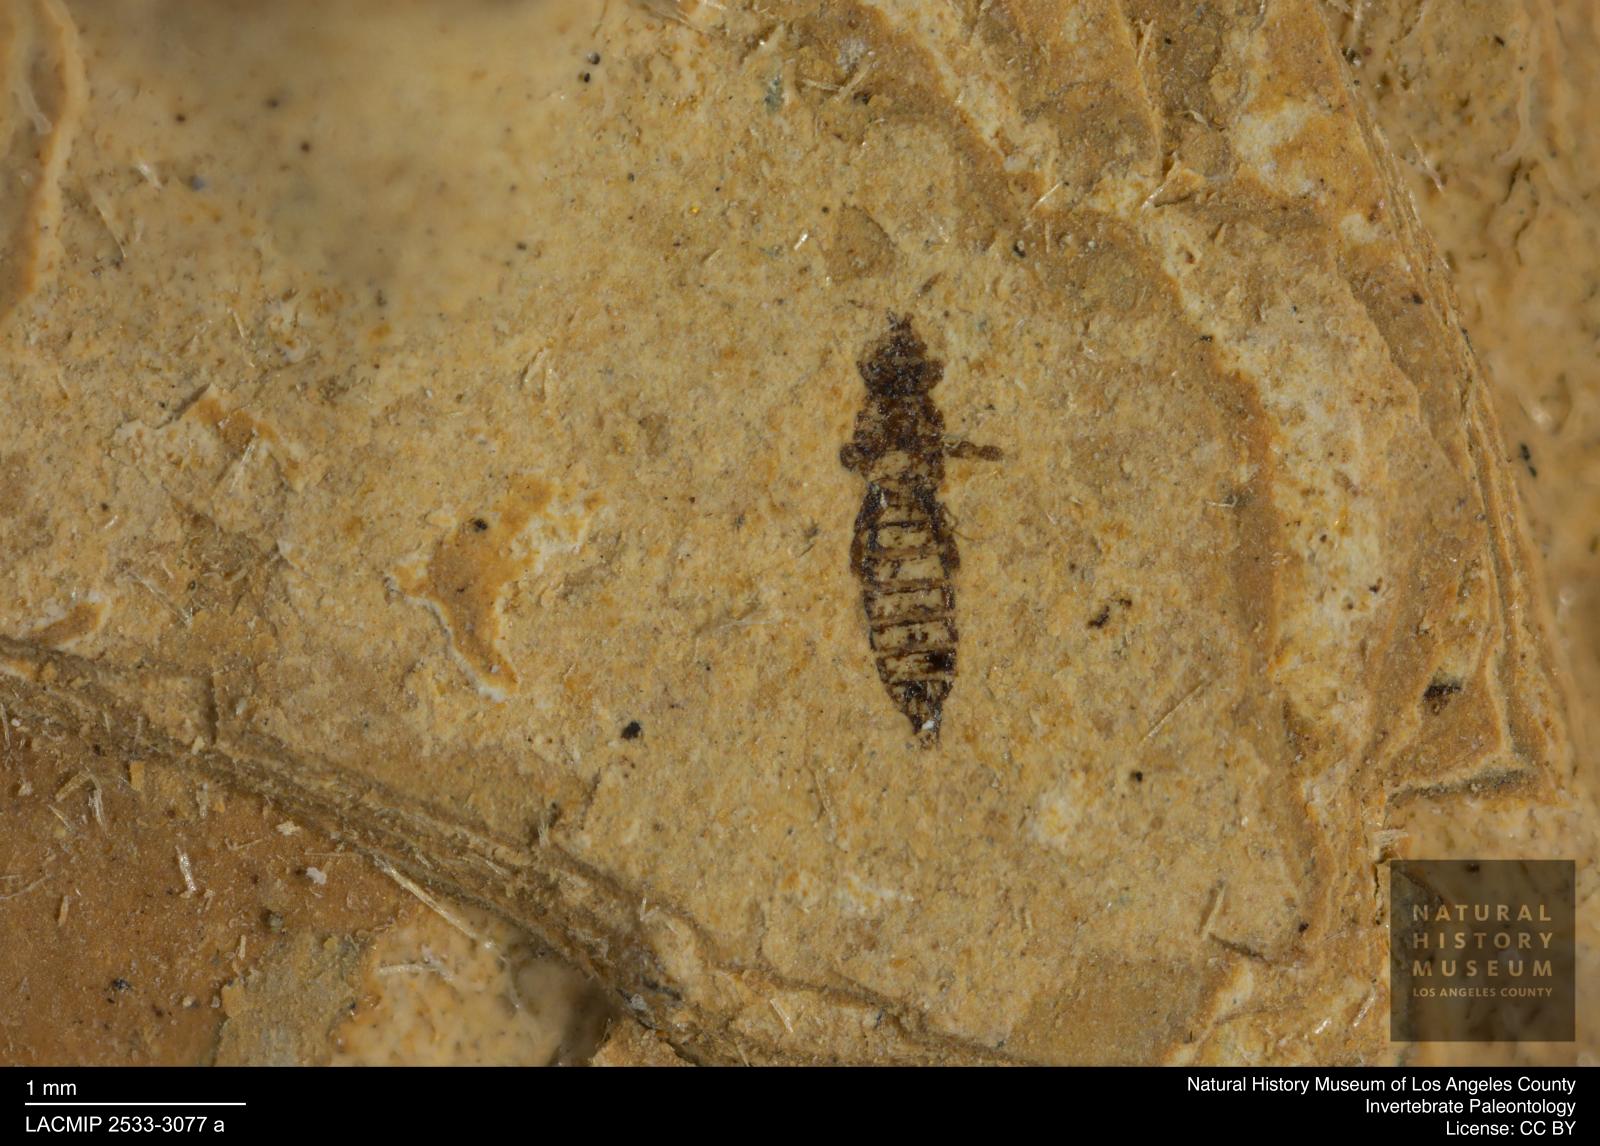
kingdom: Animalia
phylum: Arthropoda
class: Insecta
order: Thysanoptera
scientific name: Thysanoptera
